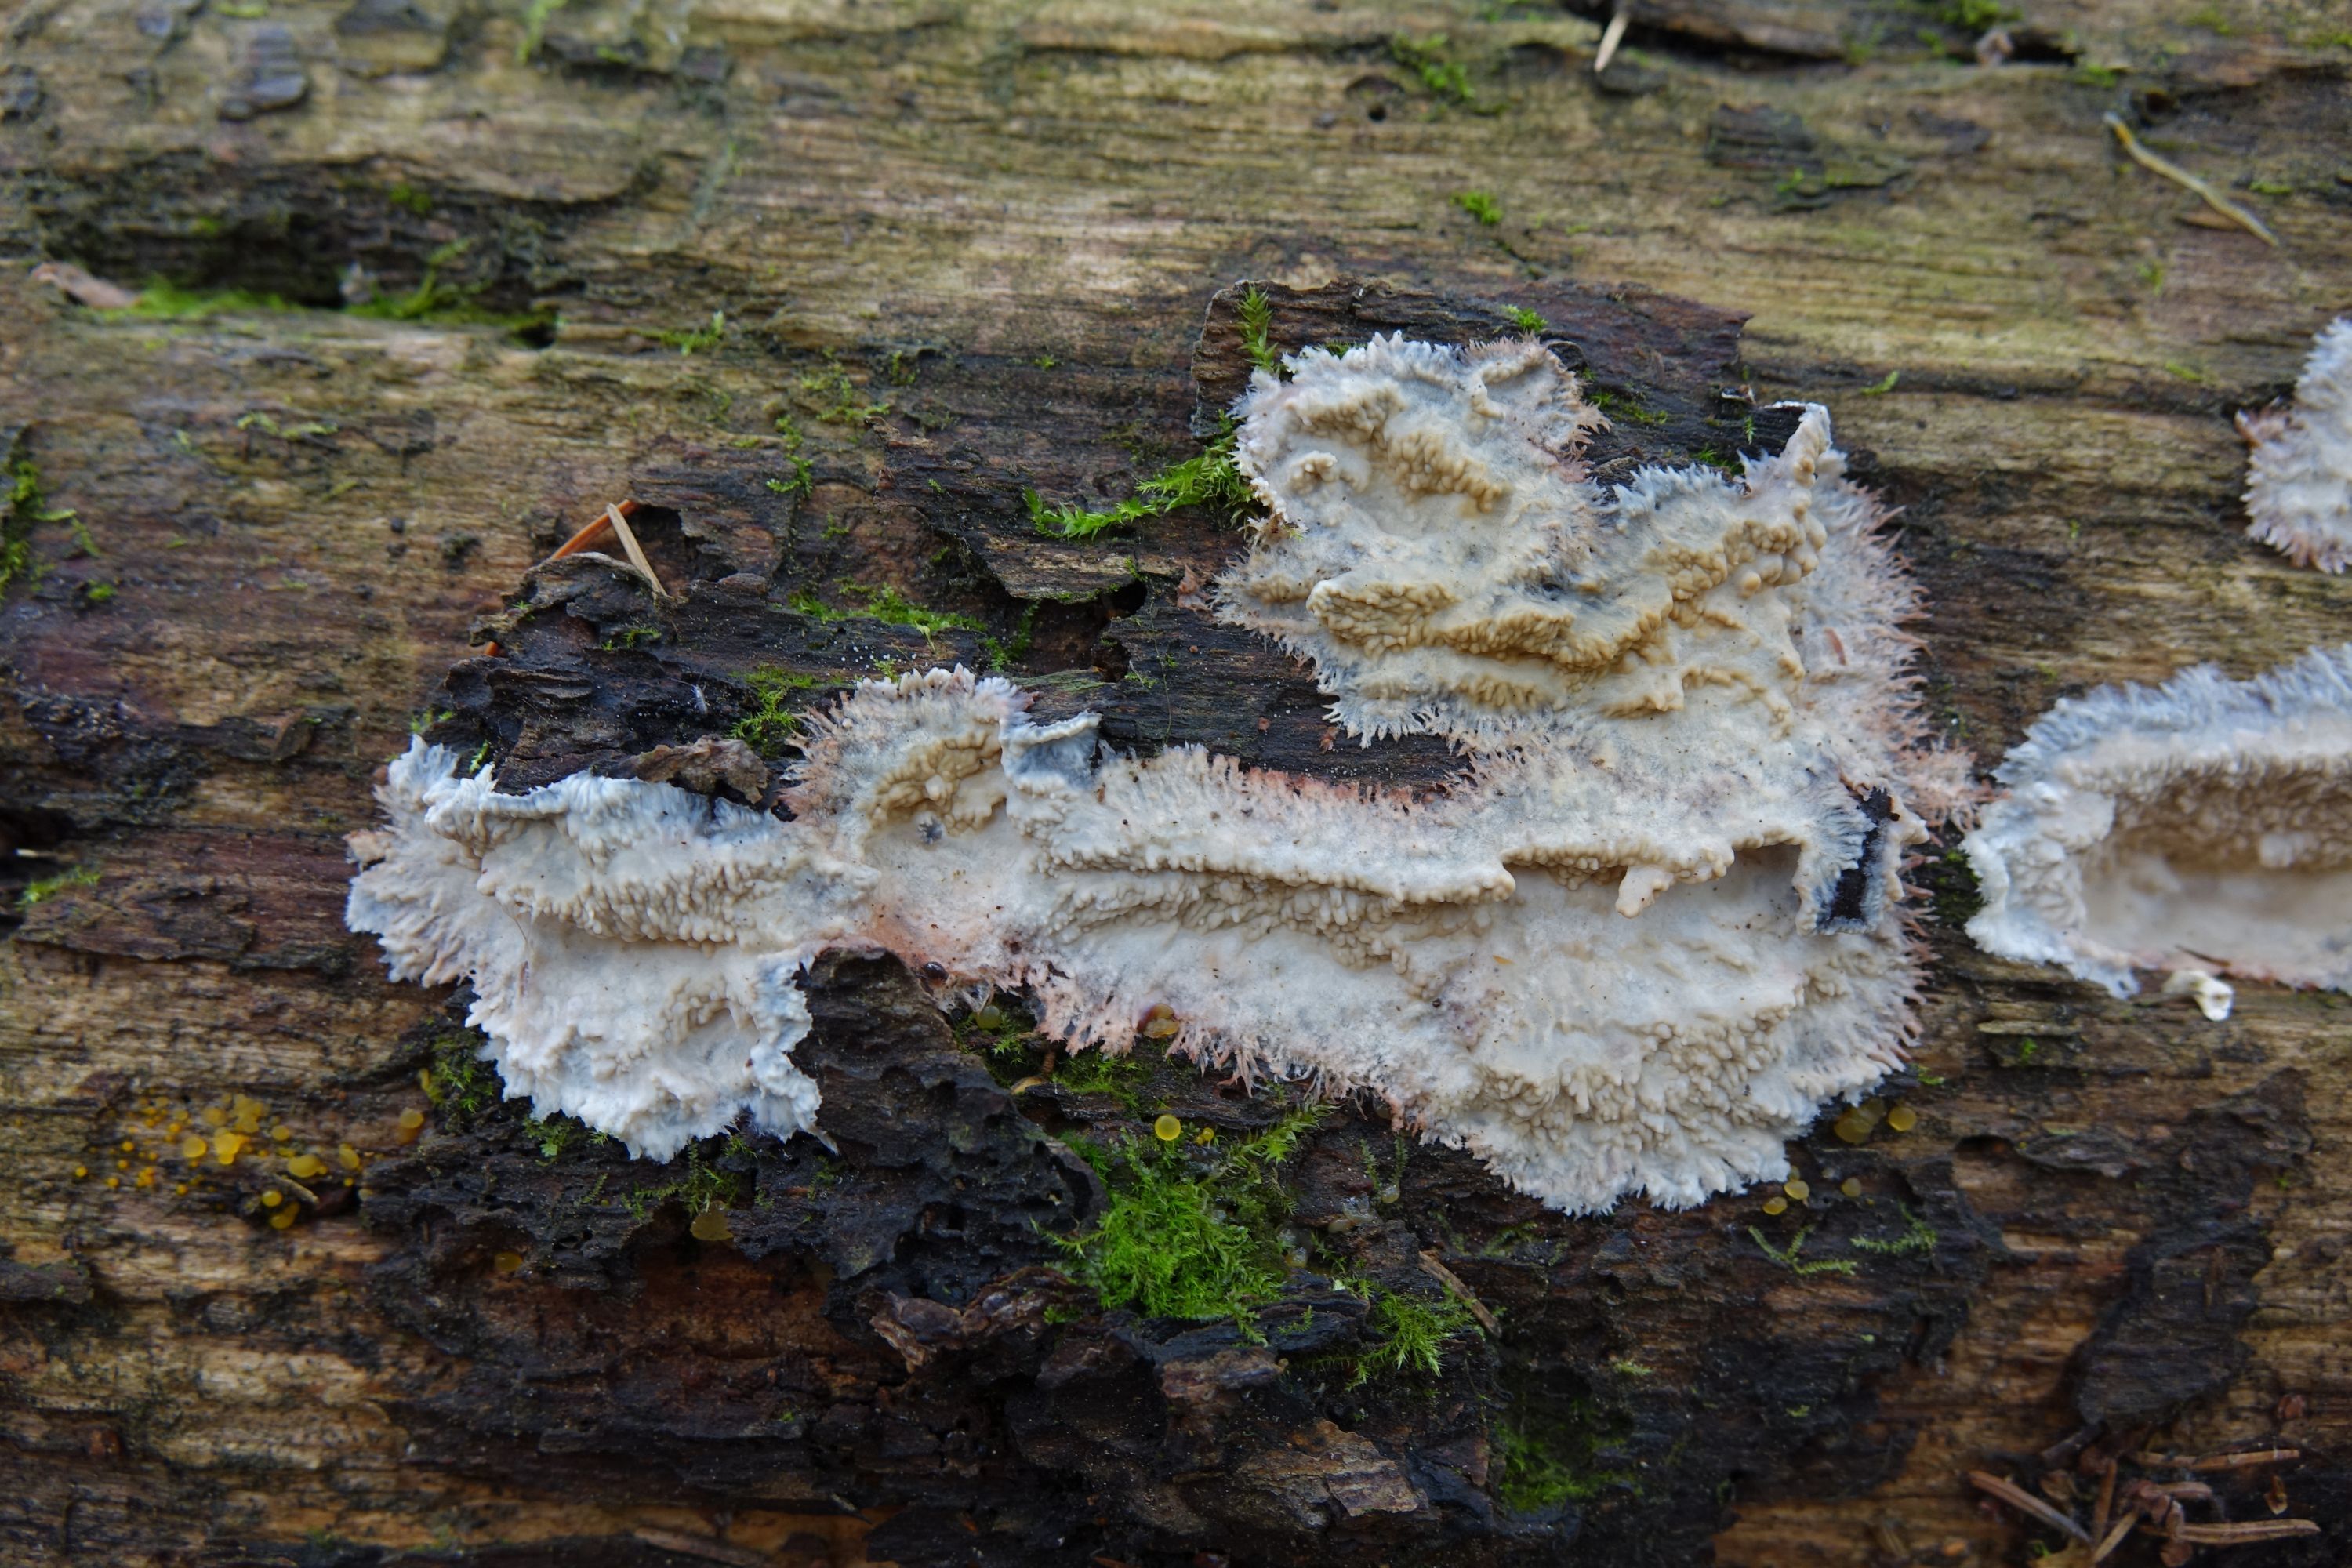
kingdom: Fungi
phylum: Basidiomycota
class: Agaricomycetes
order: Polyporales
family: Meruliaceae
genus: Hermanssonia
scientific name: Hermanssonia centrifuga
